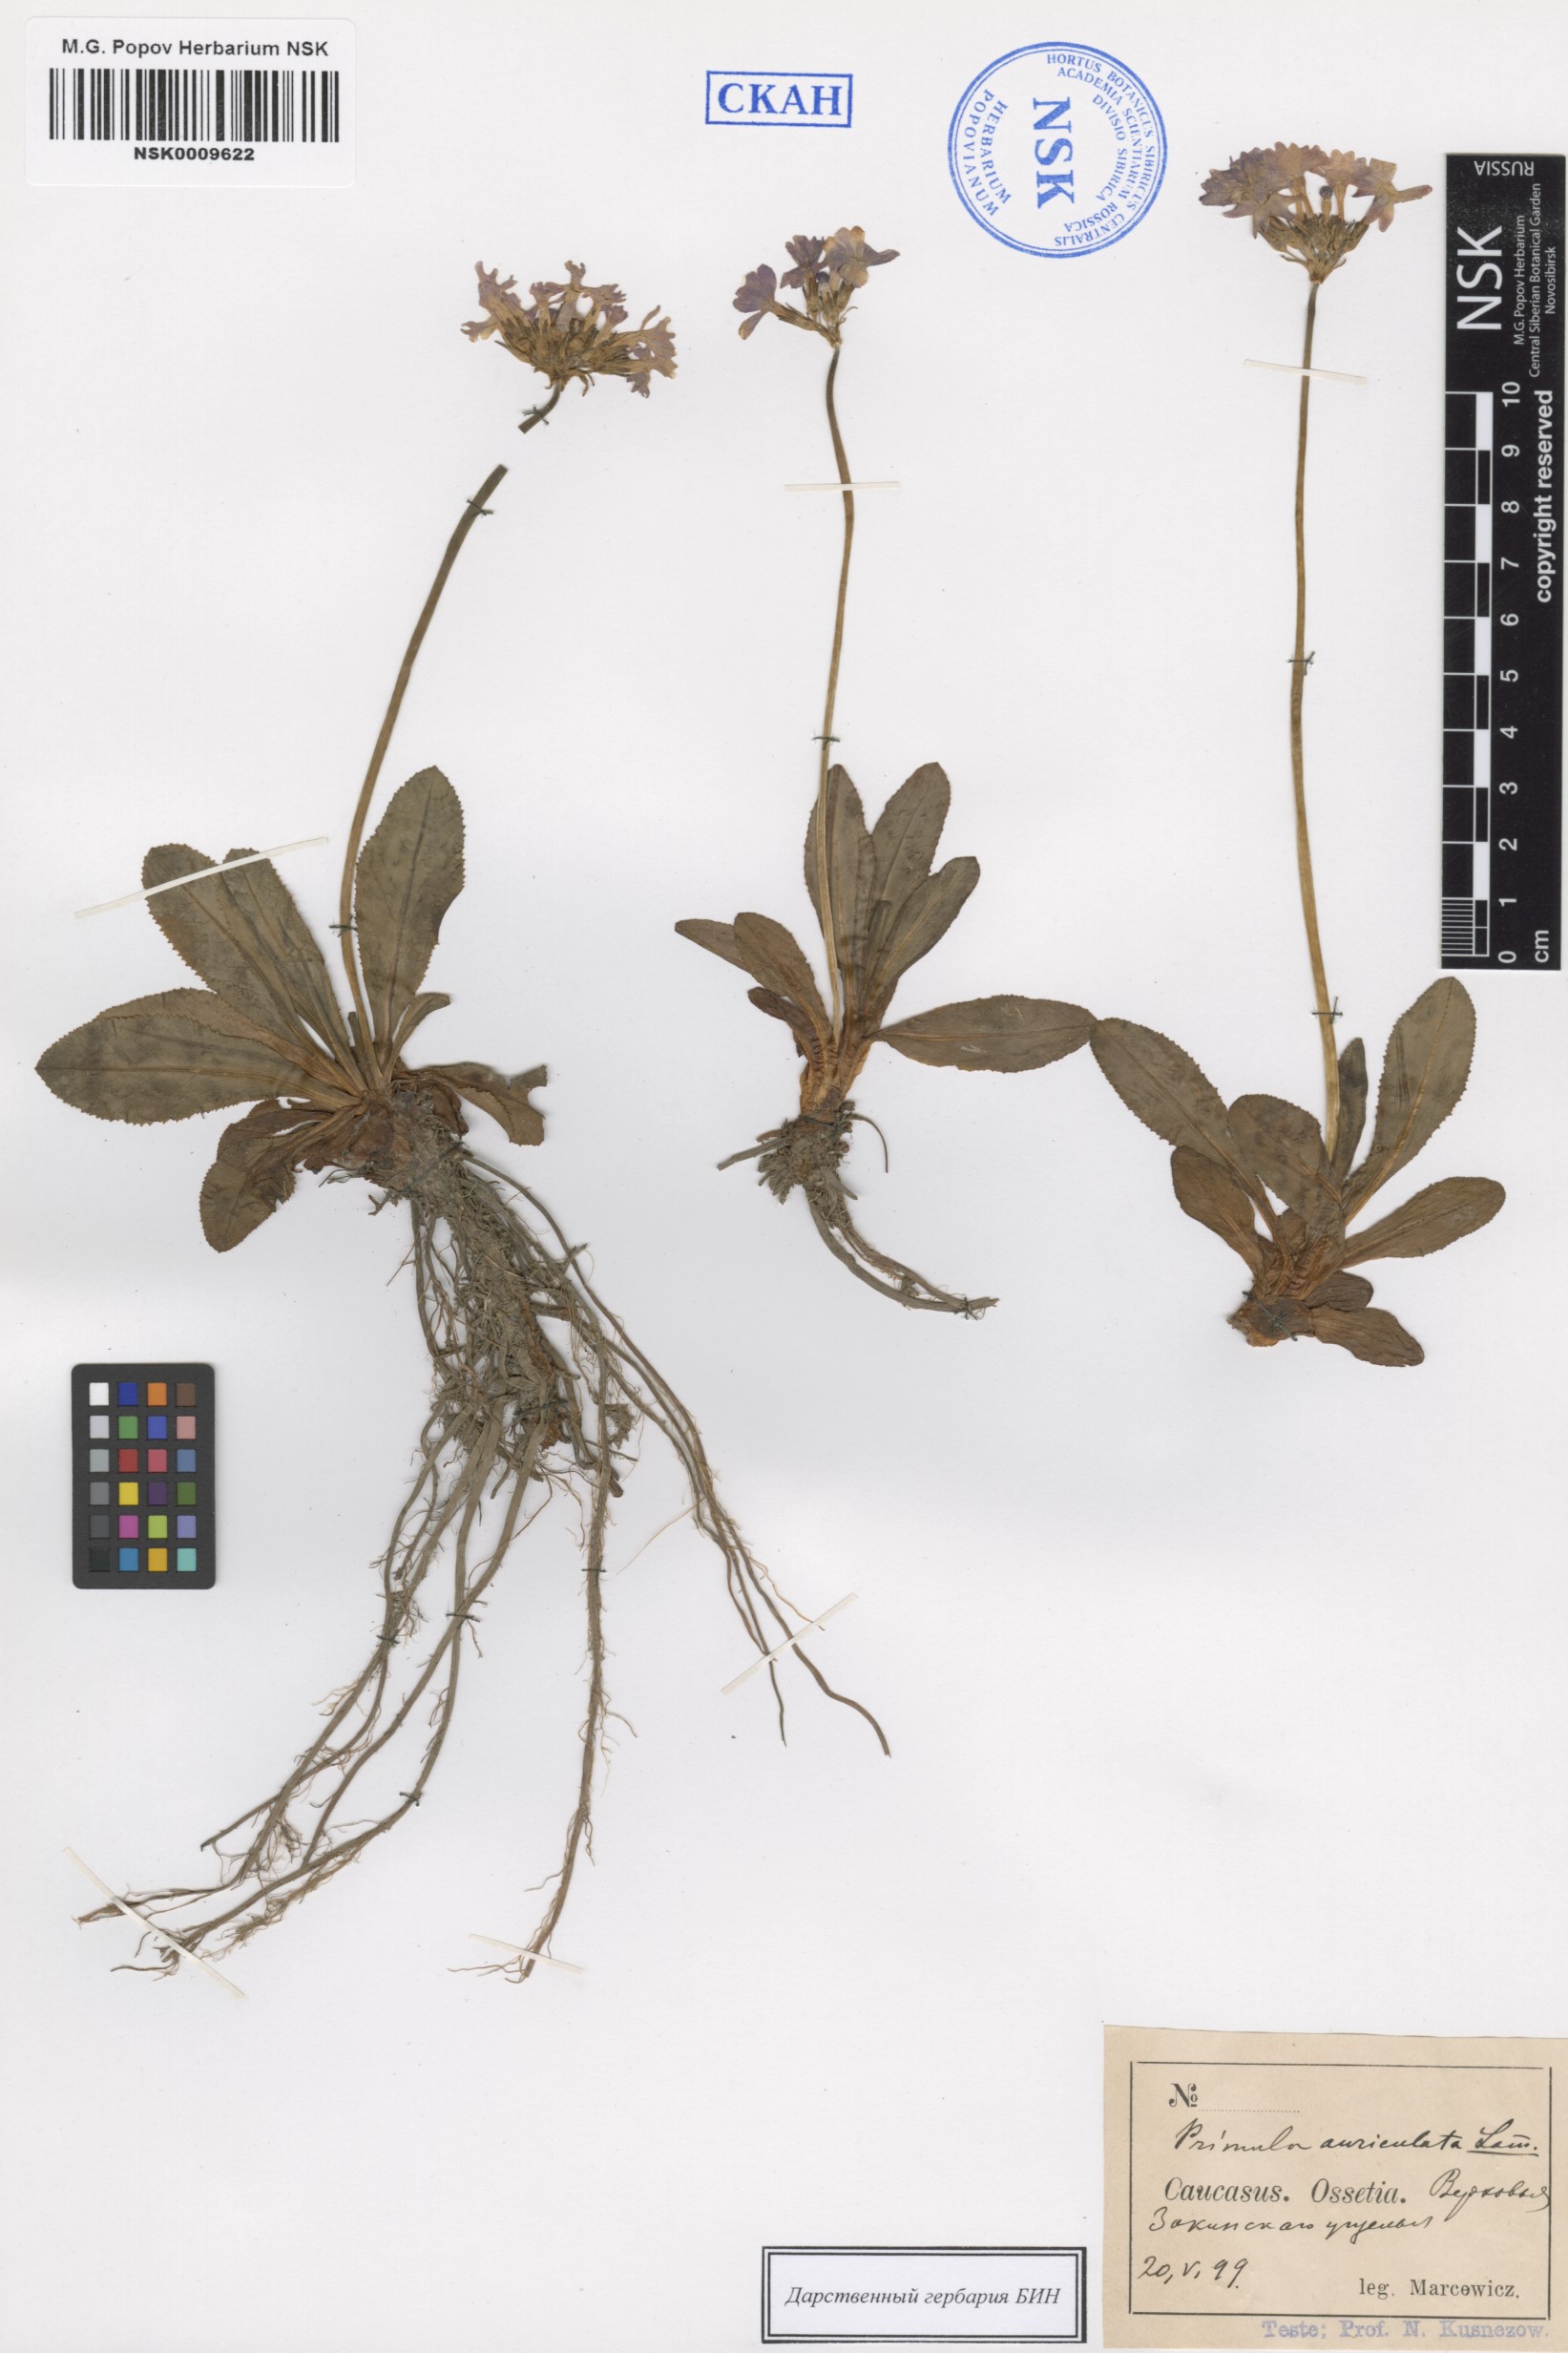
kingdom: Plantae
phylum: Tracheophyta
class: Magnoliopsida
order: Ericales
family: Primulaceae
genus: Primula
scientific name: Primula auriculata
